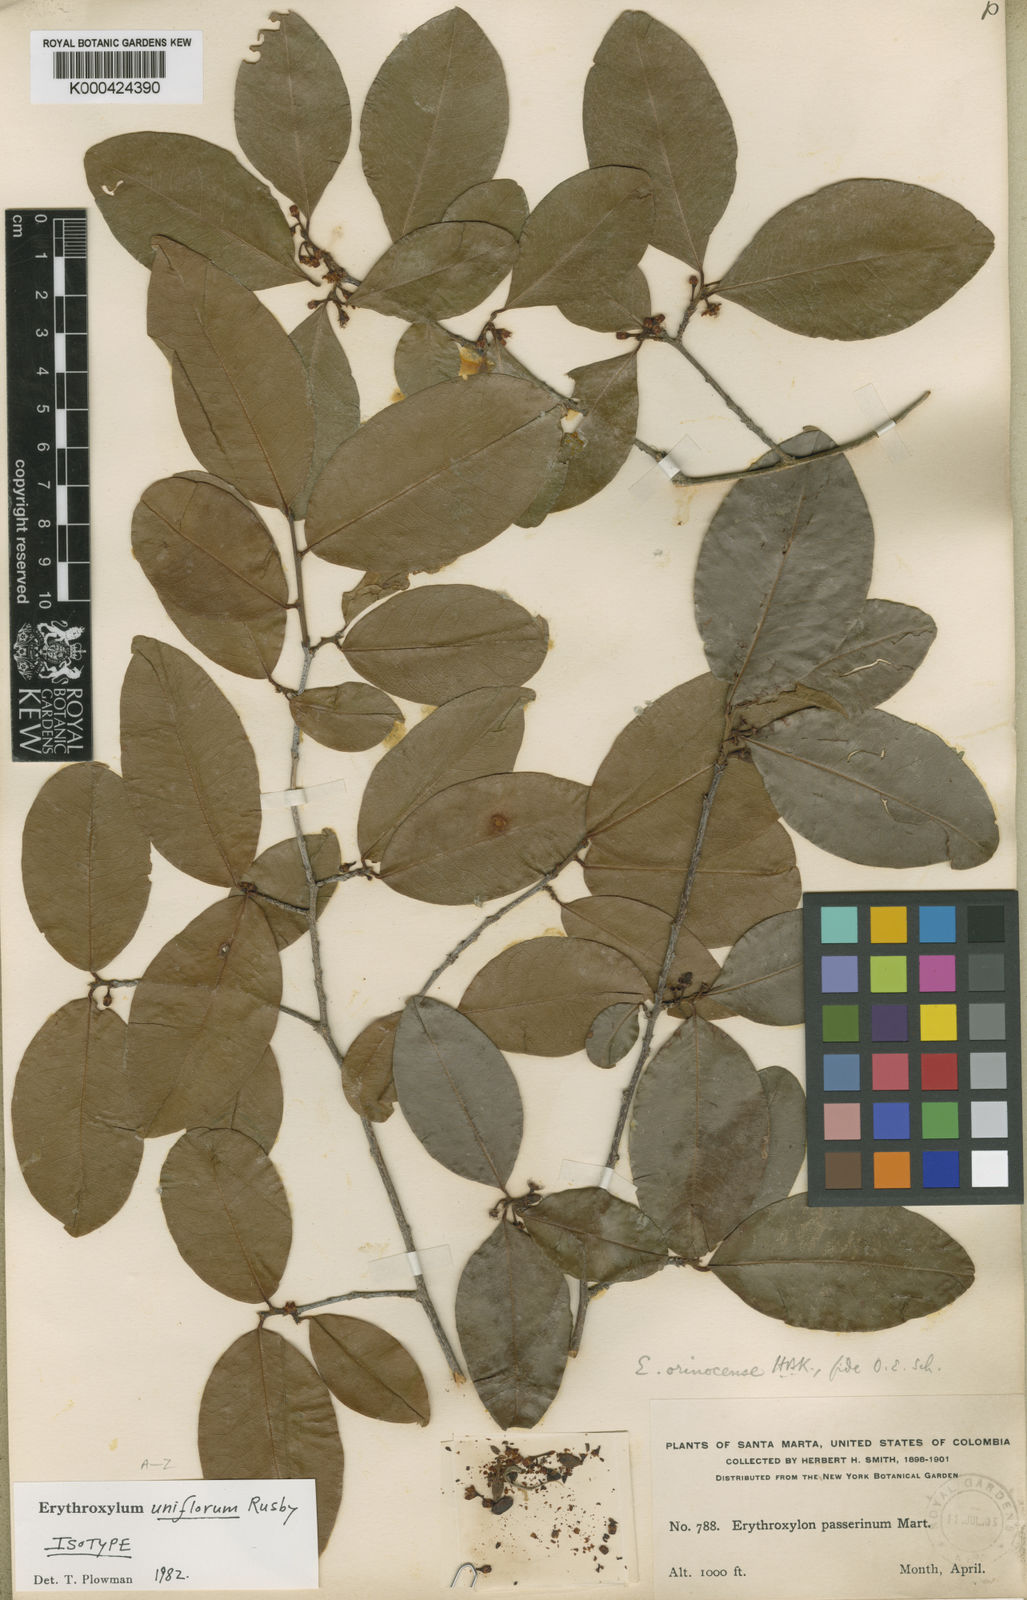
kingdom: Plantae
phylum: Tracheophyta
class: Magnoliopsida
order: Malpighiales
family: Erythroxylaceae
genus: Erythroxylum
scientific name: Erythroxylum oxycarpum
